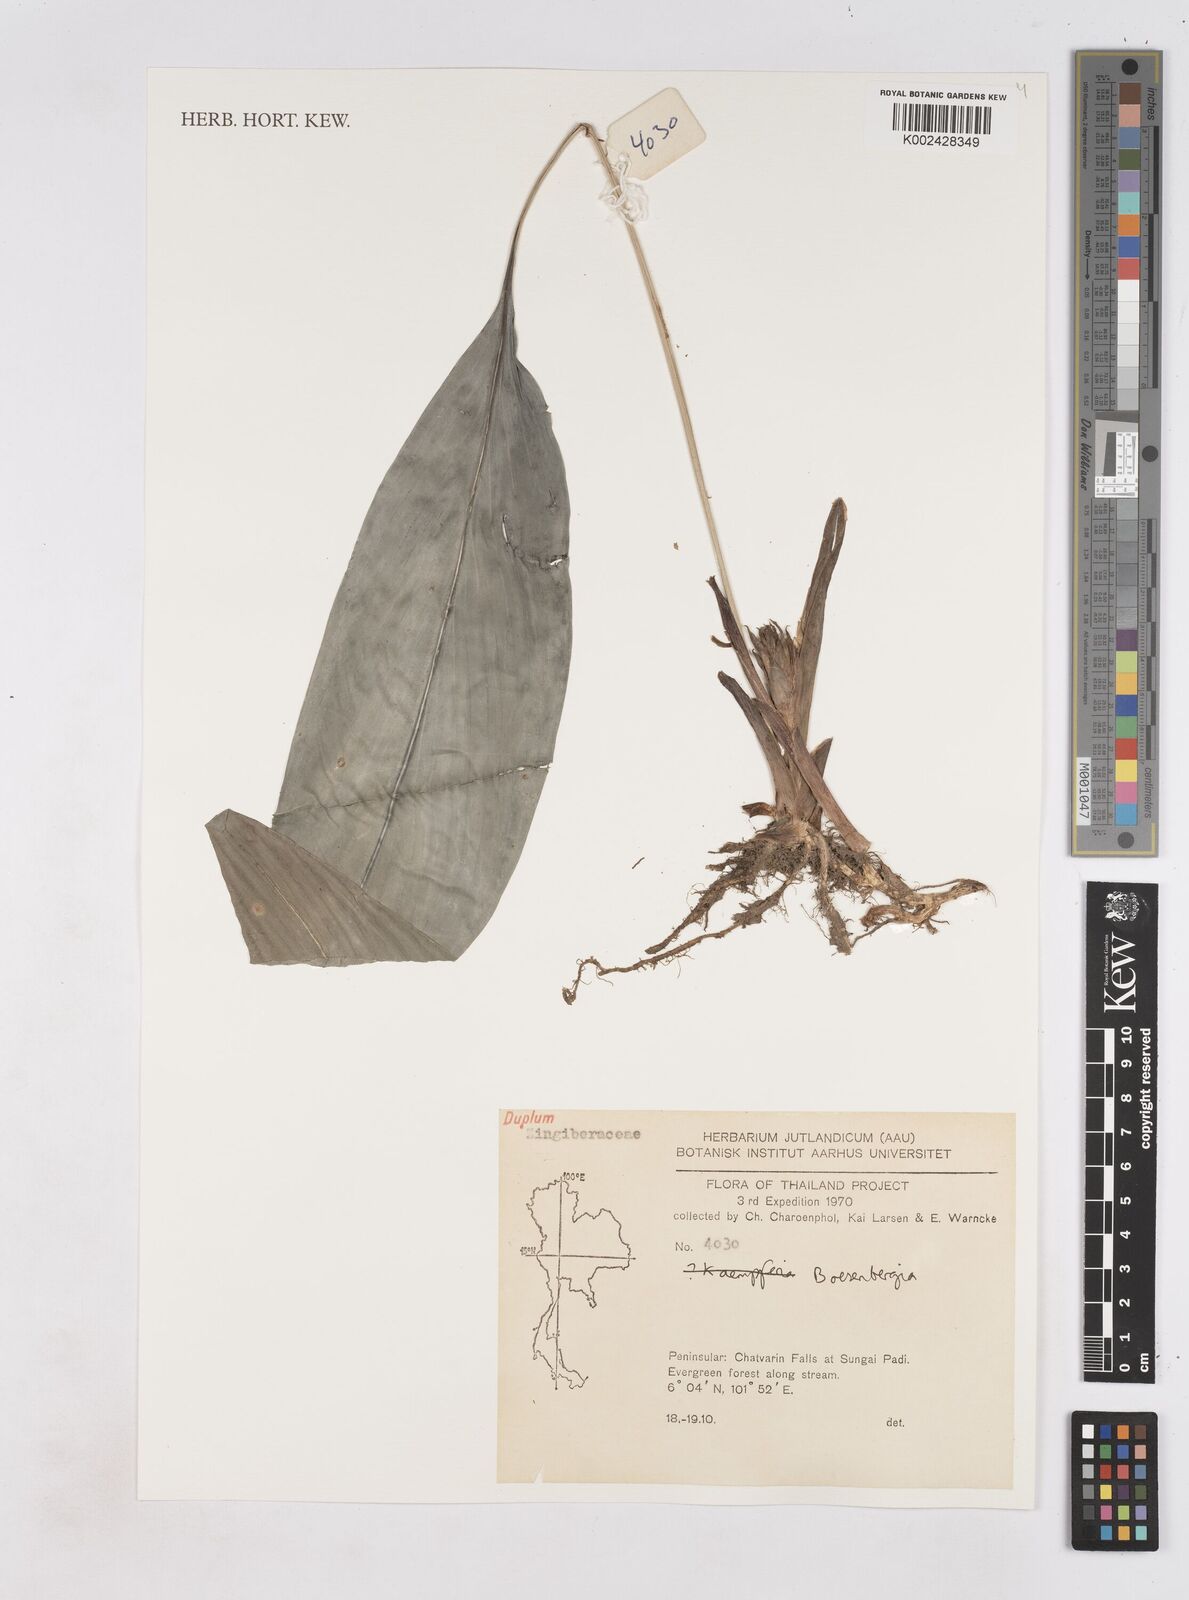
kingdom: Plantae
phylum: Tracheophyta
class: Liliopsida
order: Zingiberales
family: Zingiberaceae
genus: Boesenbergia
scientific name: Boesenbergia
